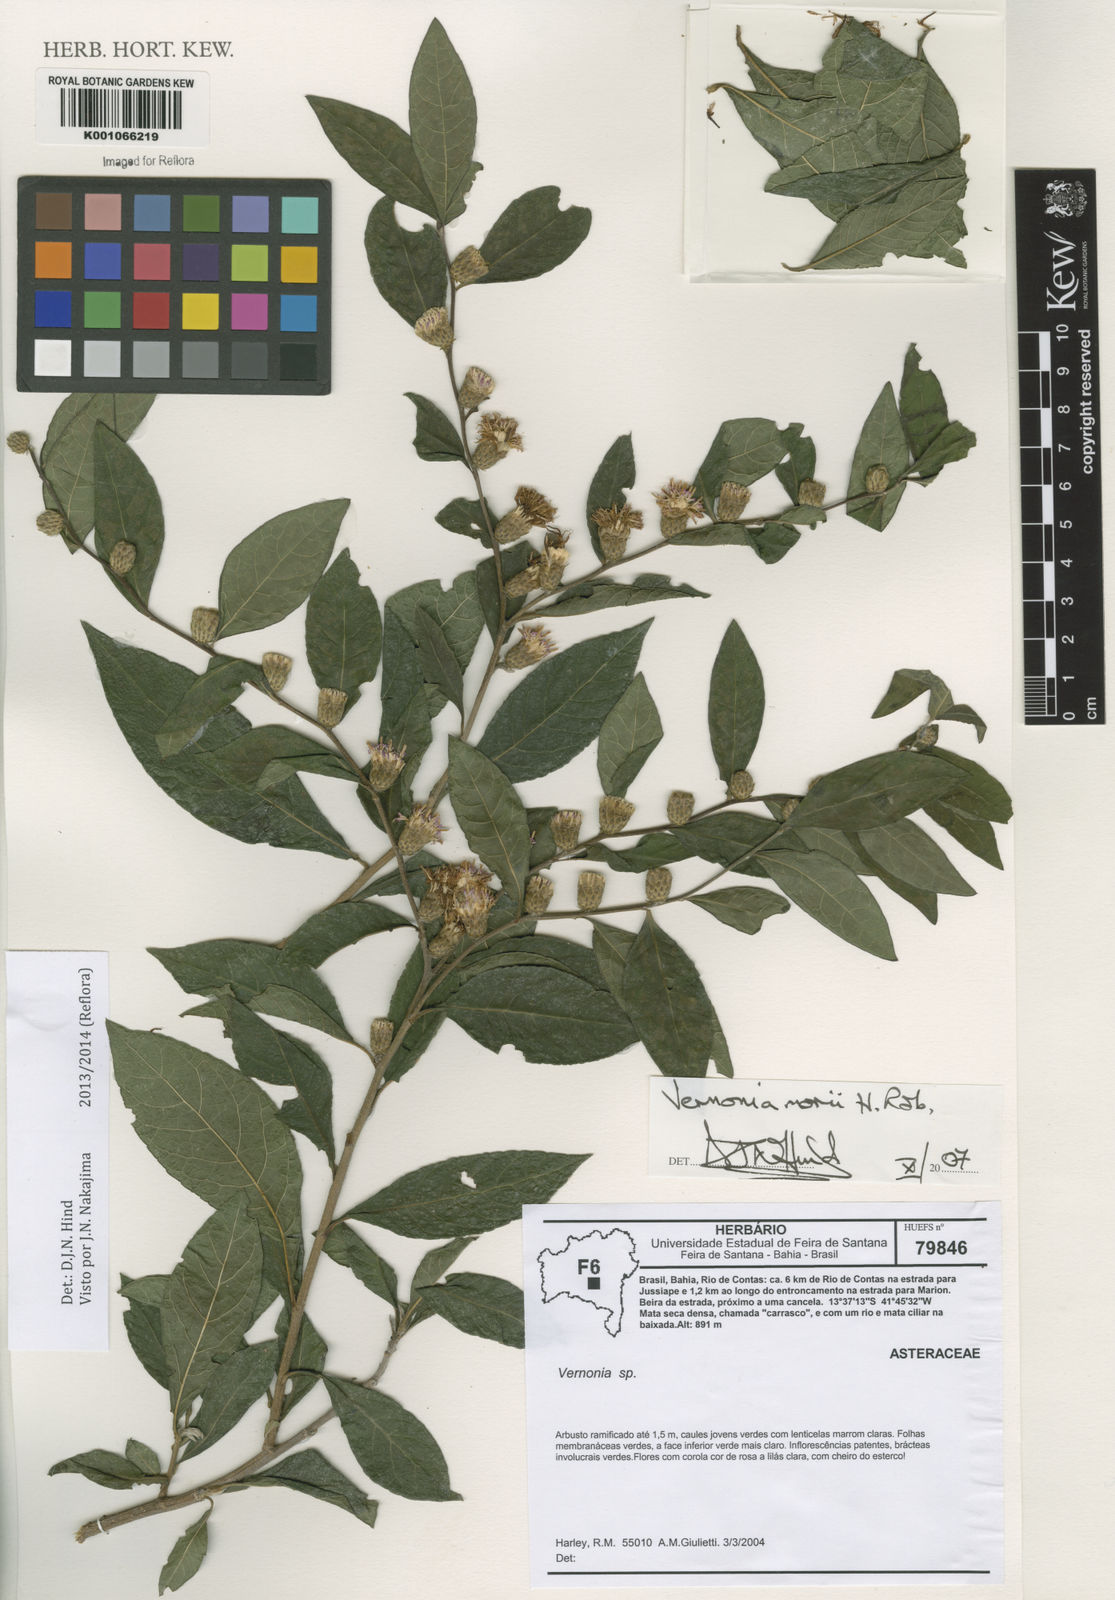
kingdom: Plantae
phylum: Tracheophyta
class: Magnoliopsida
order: Asterales
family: Asteraceae
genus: Lessingianthus
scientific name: Lessingianthus morii
